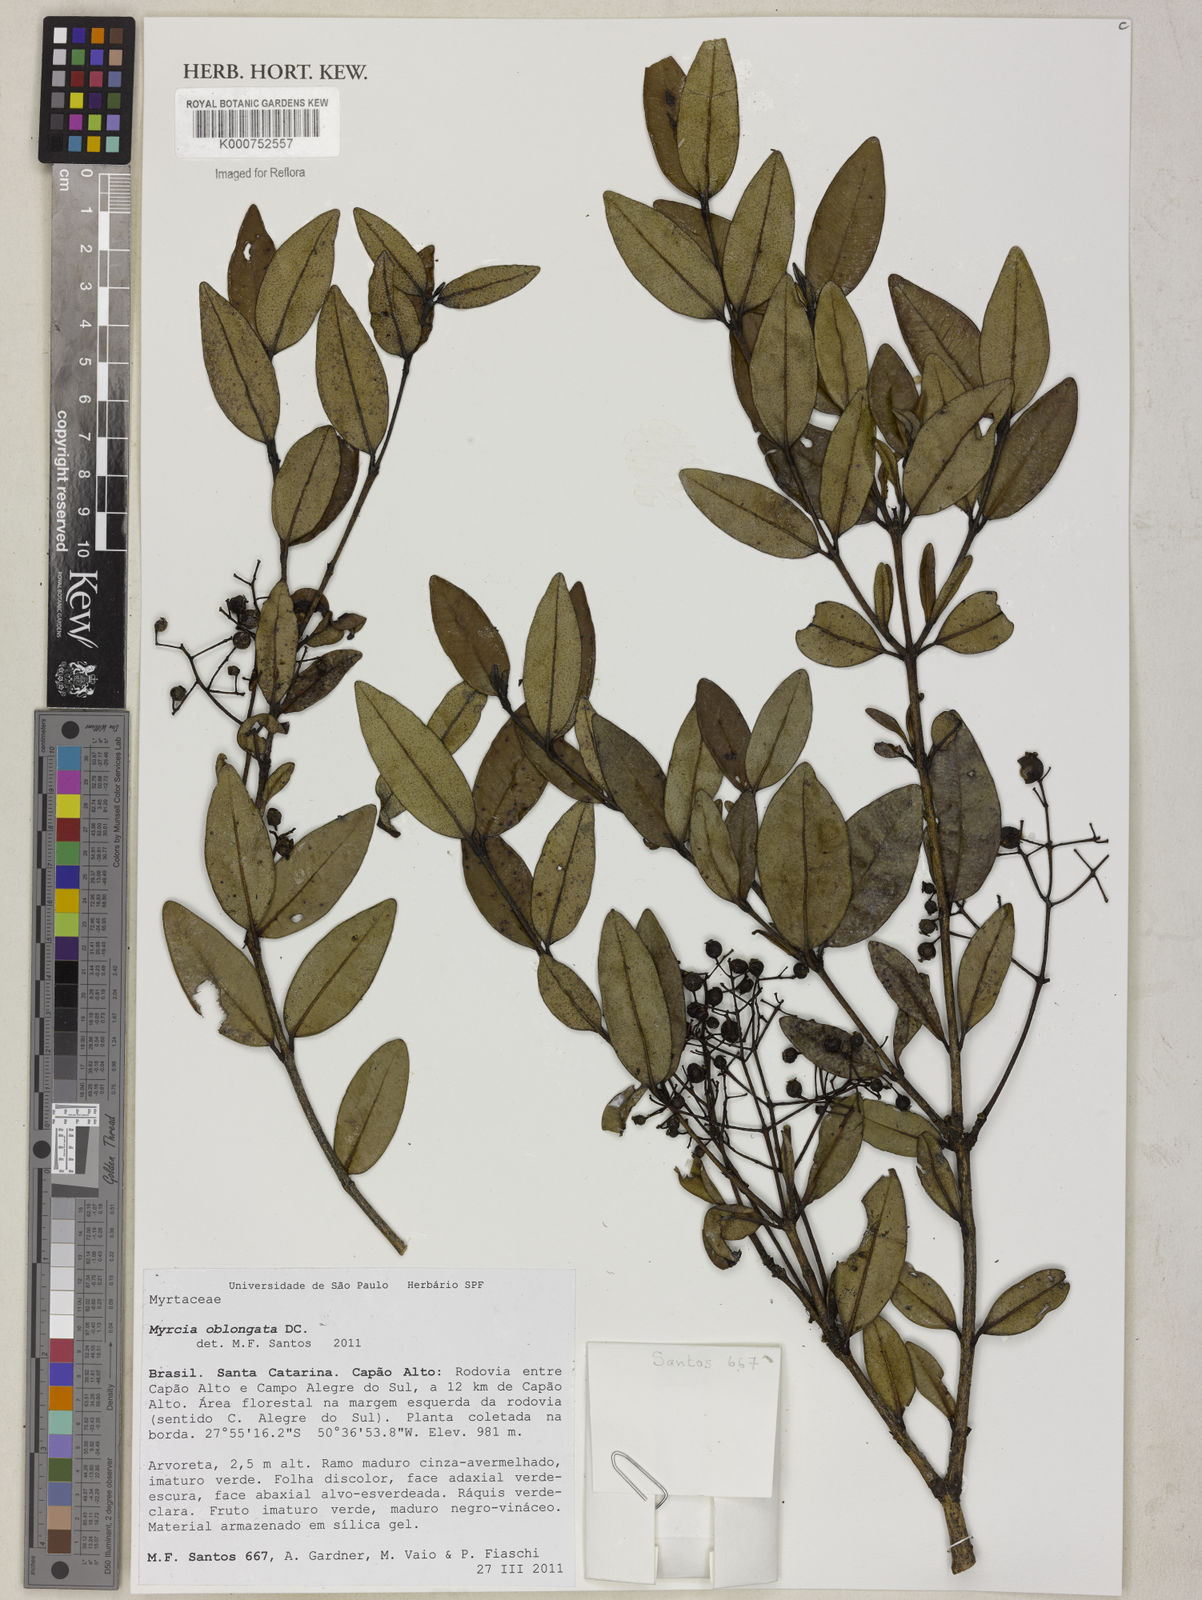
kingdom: Plantae
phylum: Tracheophyta
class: Magnoliopsida
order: Myrtales
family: Myrtaceae
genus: Myrcia
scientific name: Myrcia oblongata
